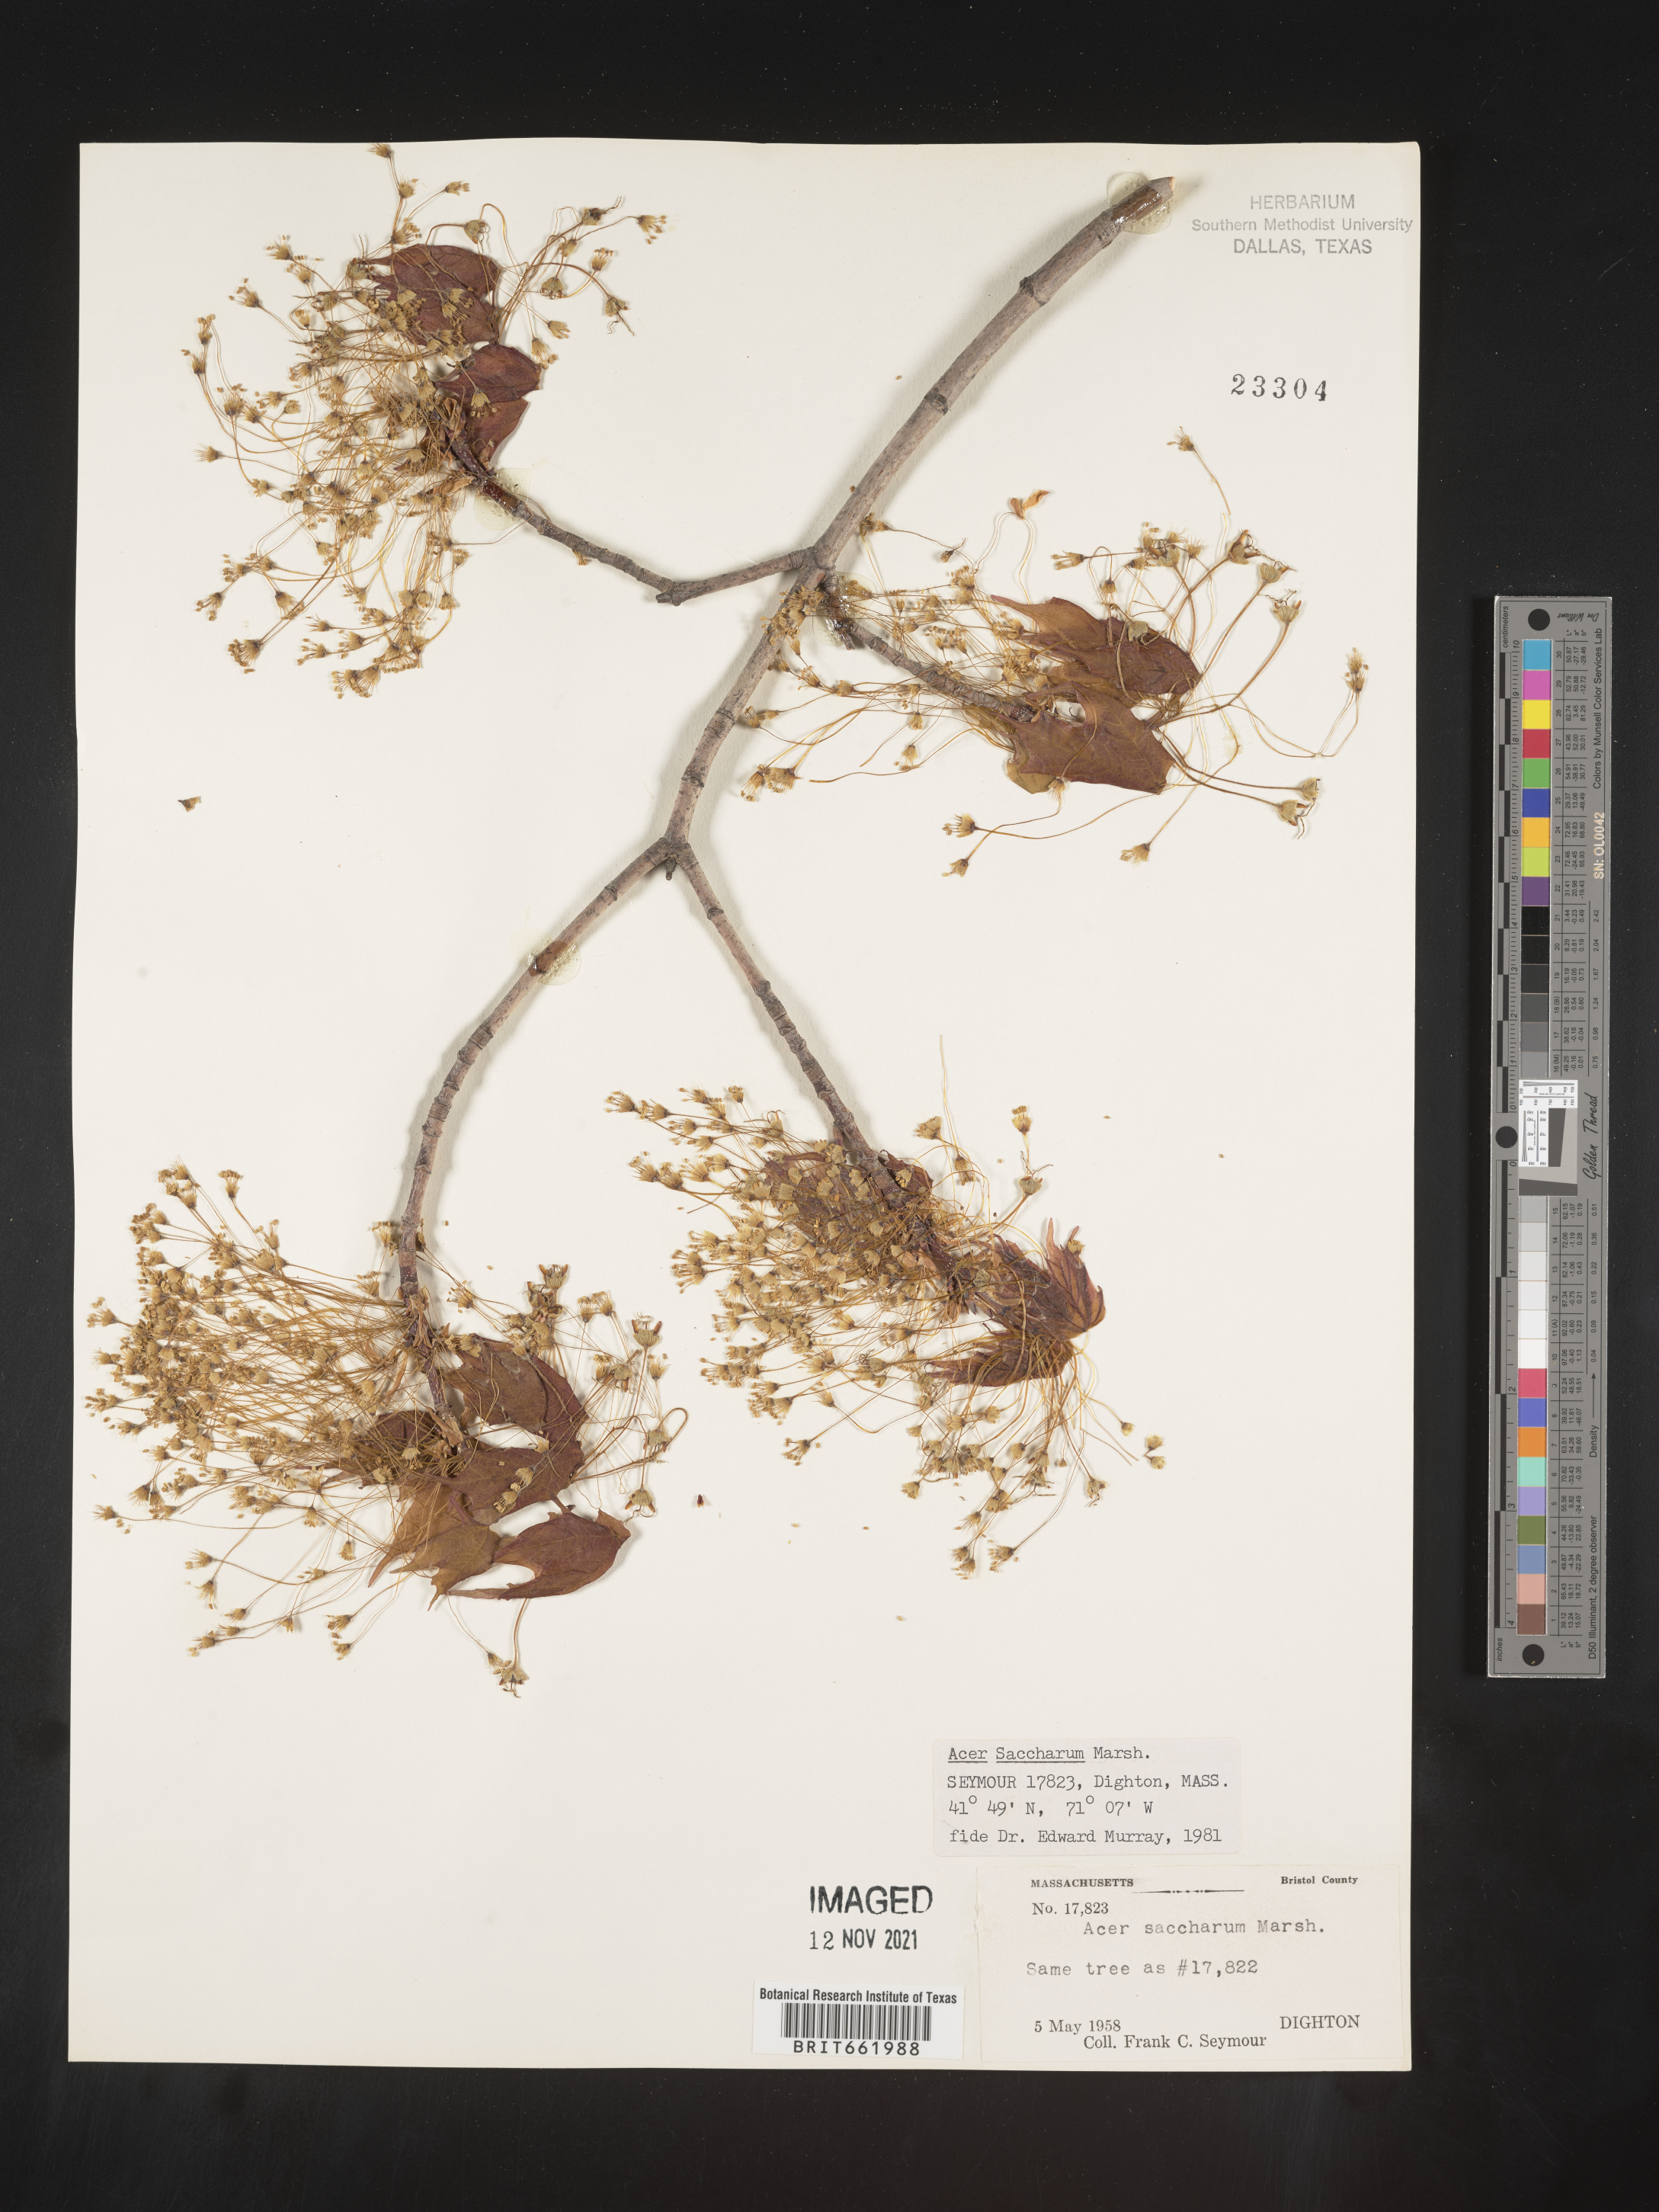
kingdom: Plantae
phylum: Tracheophyta
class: Magnoliopsida
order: Sapindales
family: Sapindaceae
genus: Acer
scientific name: Acer saccharum
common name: Sugar maple
